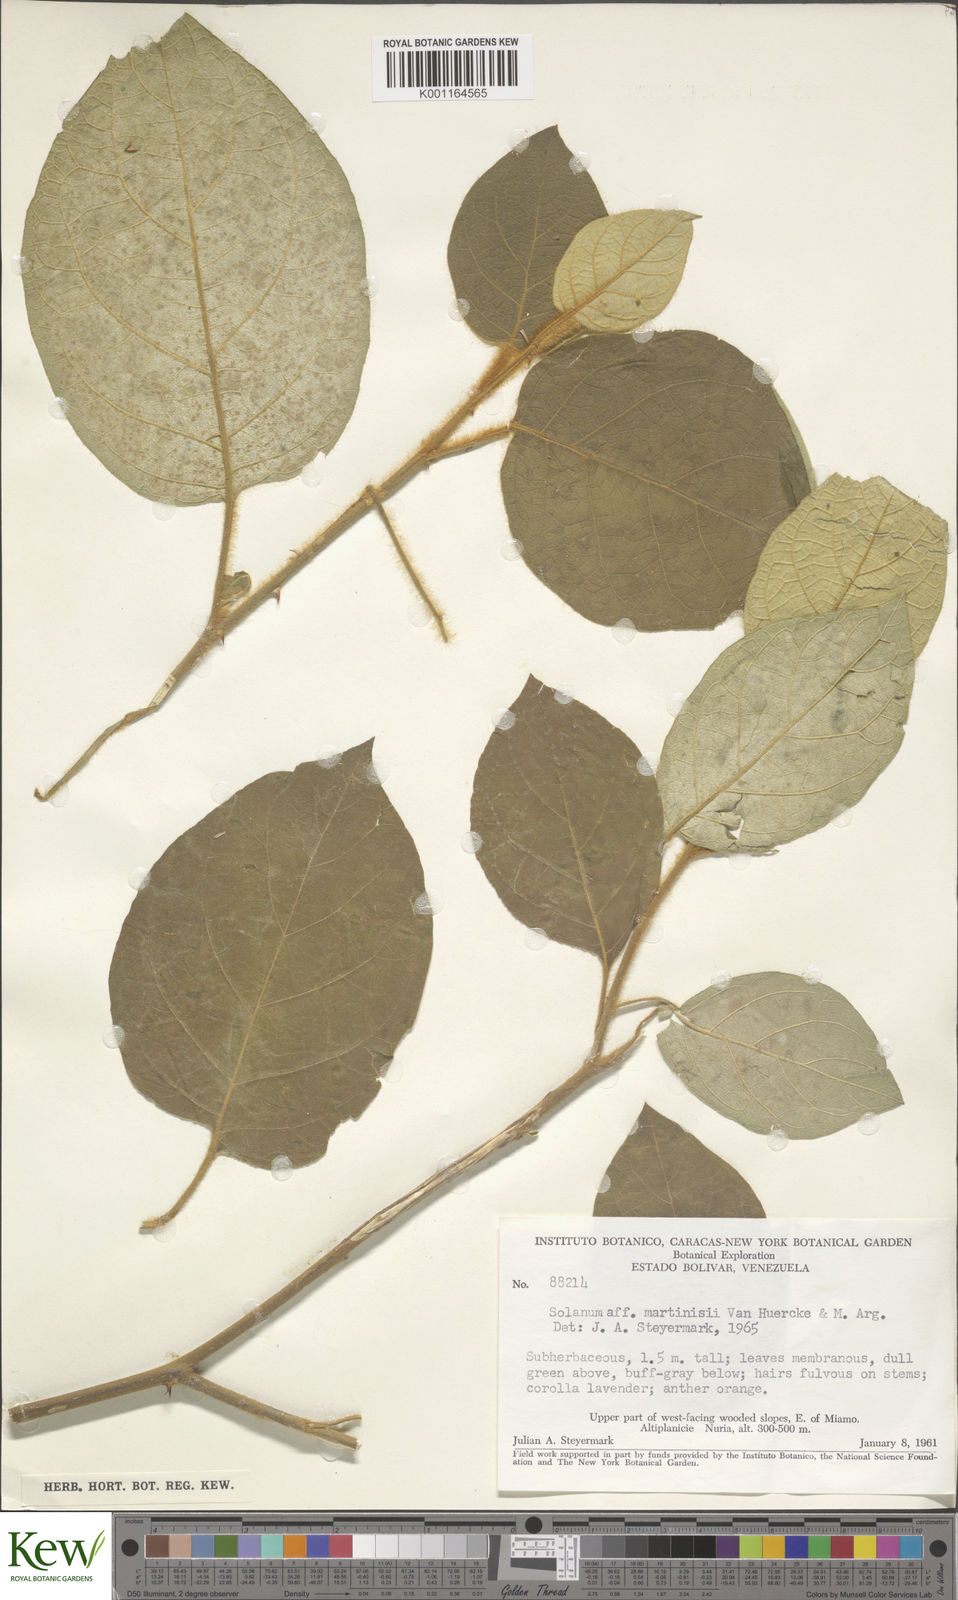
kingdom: Plantae
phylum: Tracheophyta
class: Magnoliopsida
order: Solanales
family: Solanaceae
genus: Solanum
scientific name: Solanum velutinum
